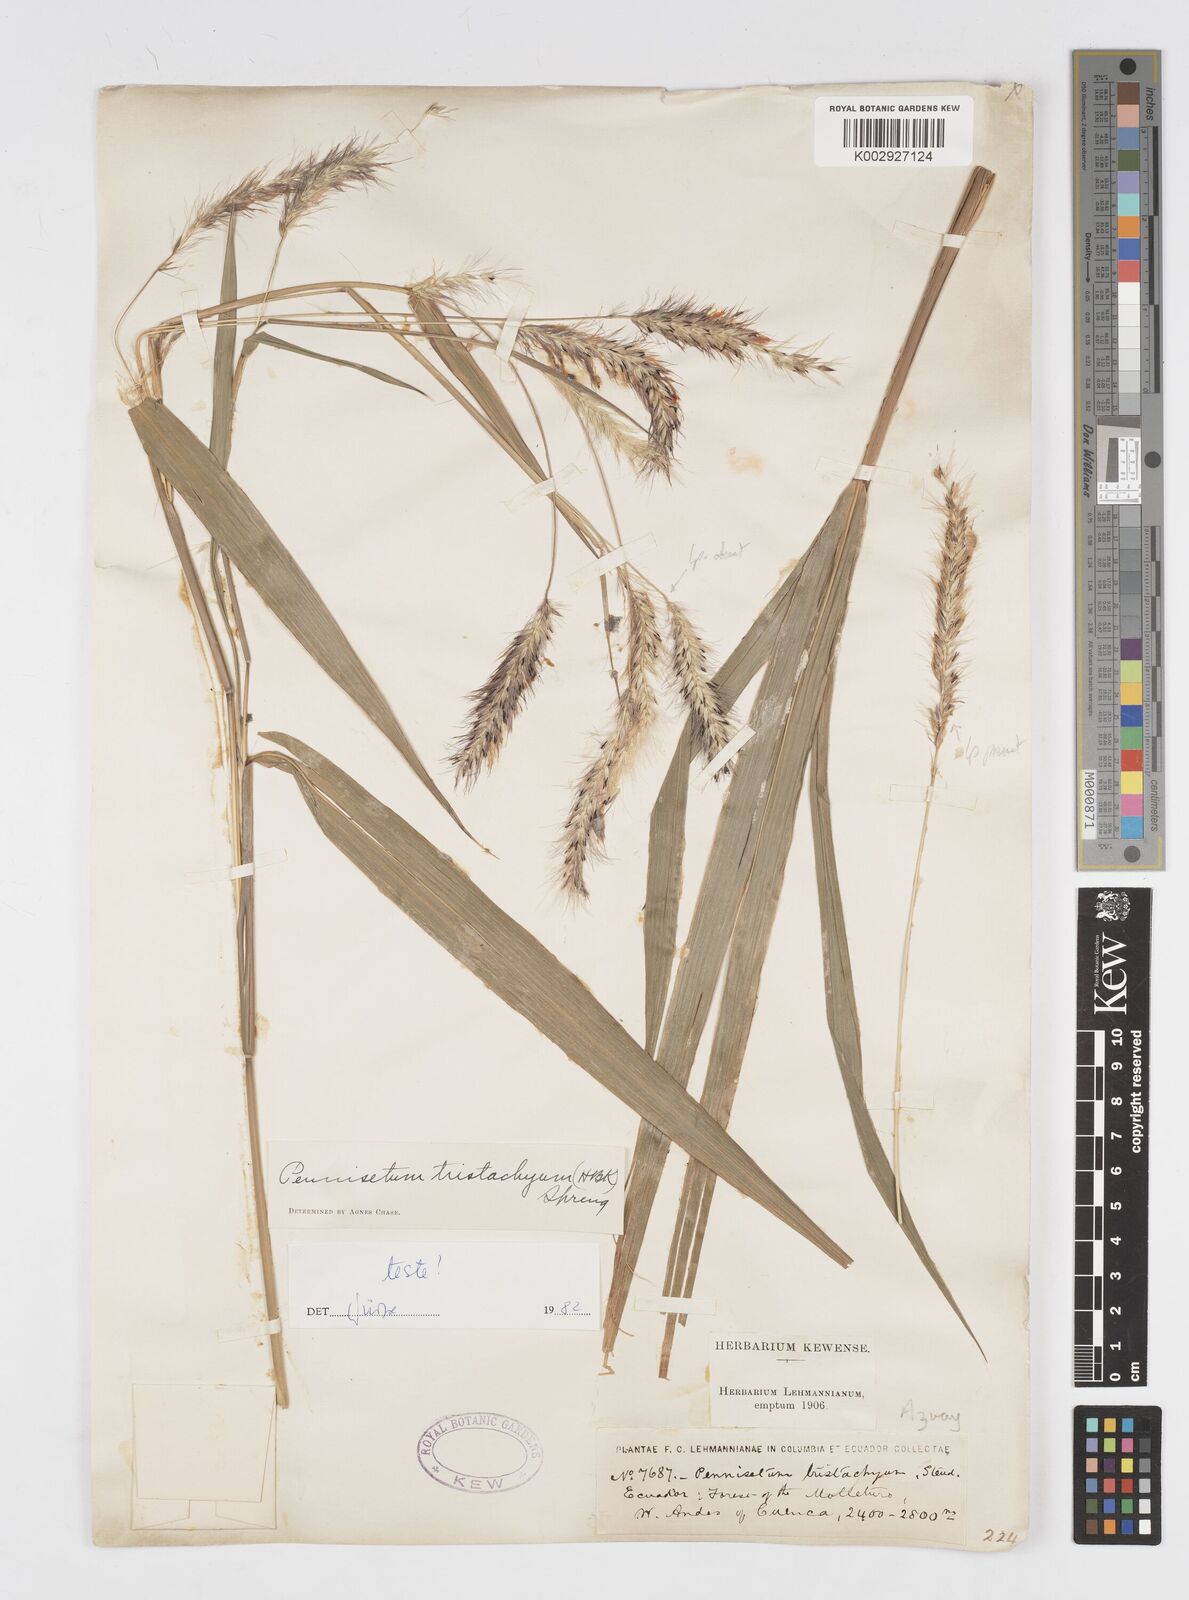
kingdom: Plantae
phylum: Tracheophyta
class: Liliopsida
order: Poales
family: Poaceae
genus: Cenchrus
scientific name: Cenchrus tristachyus
